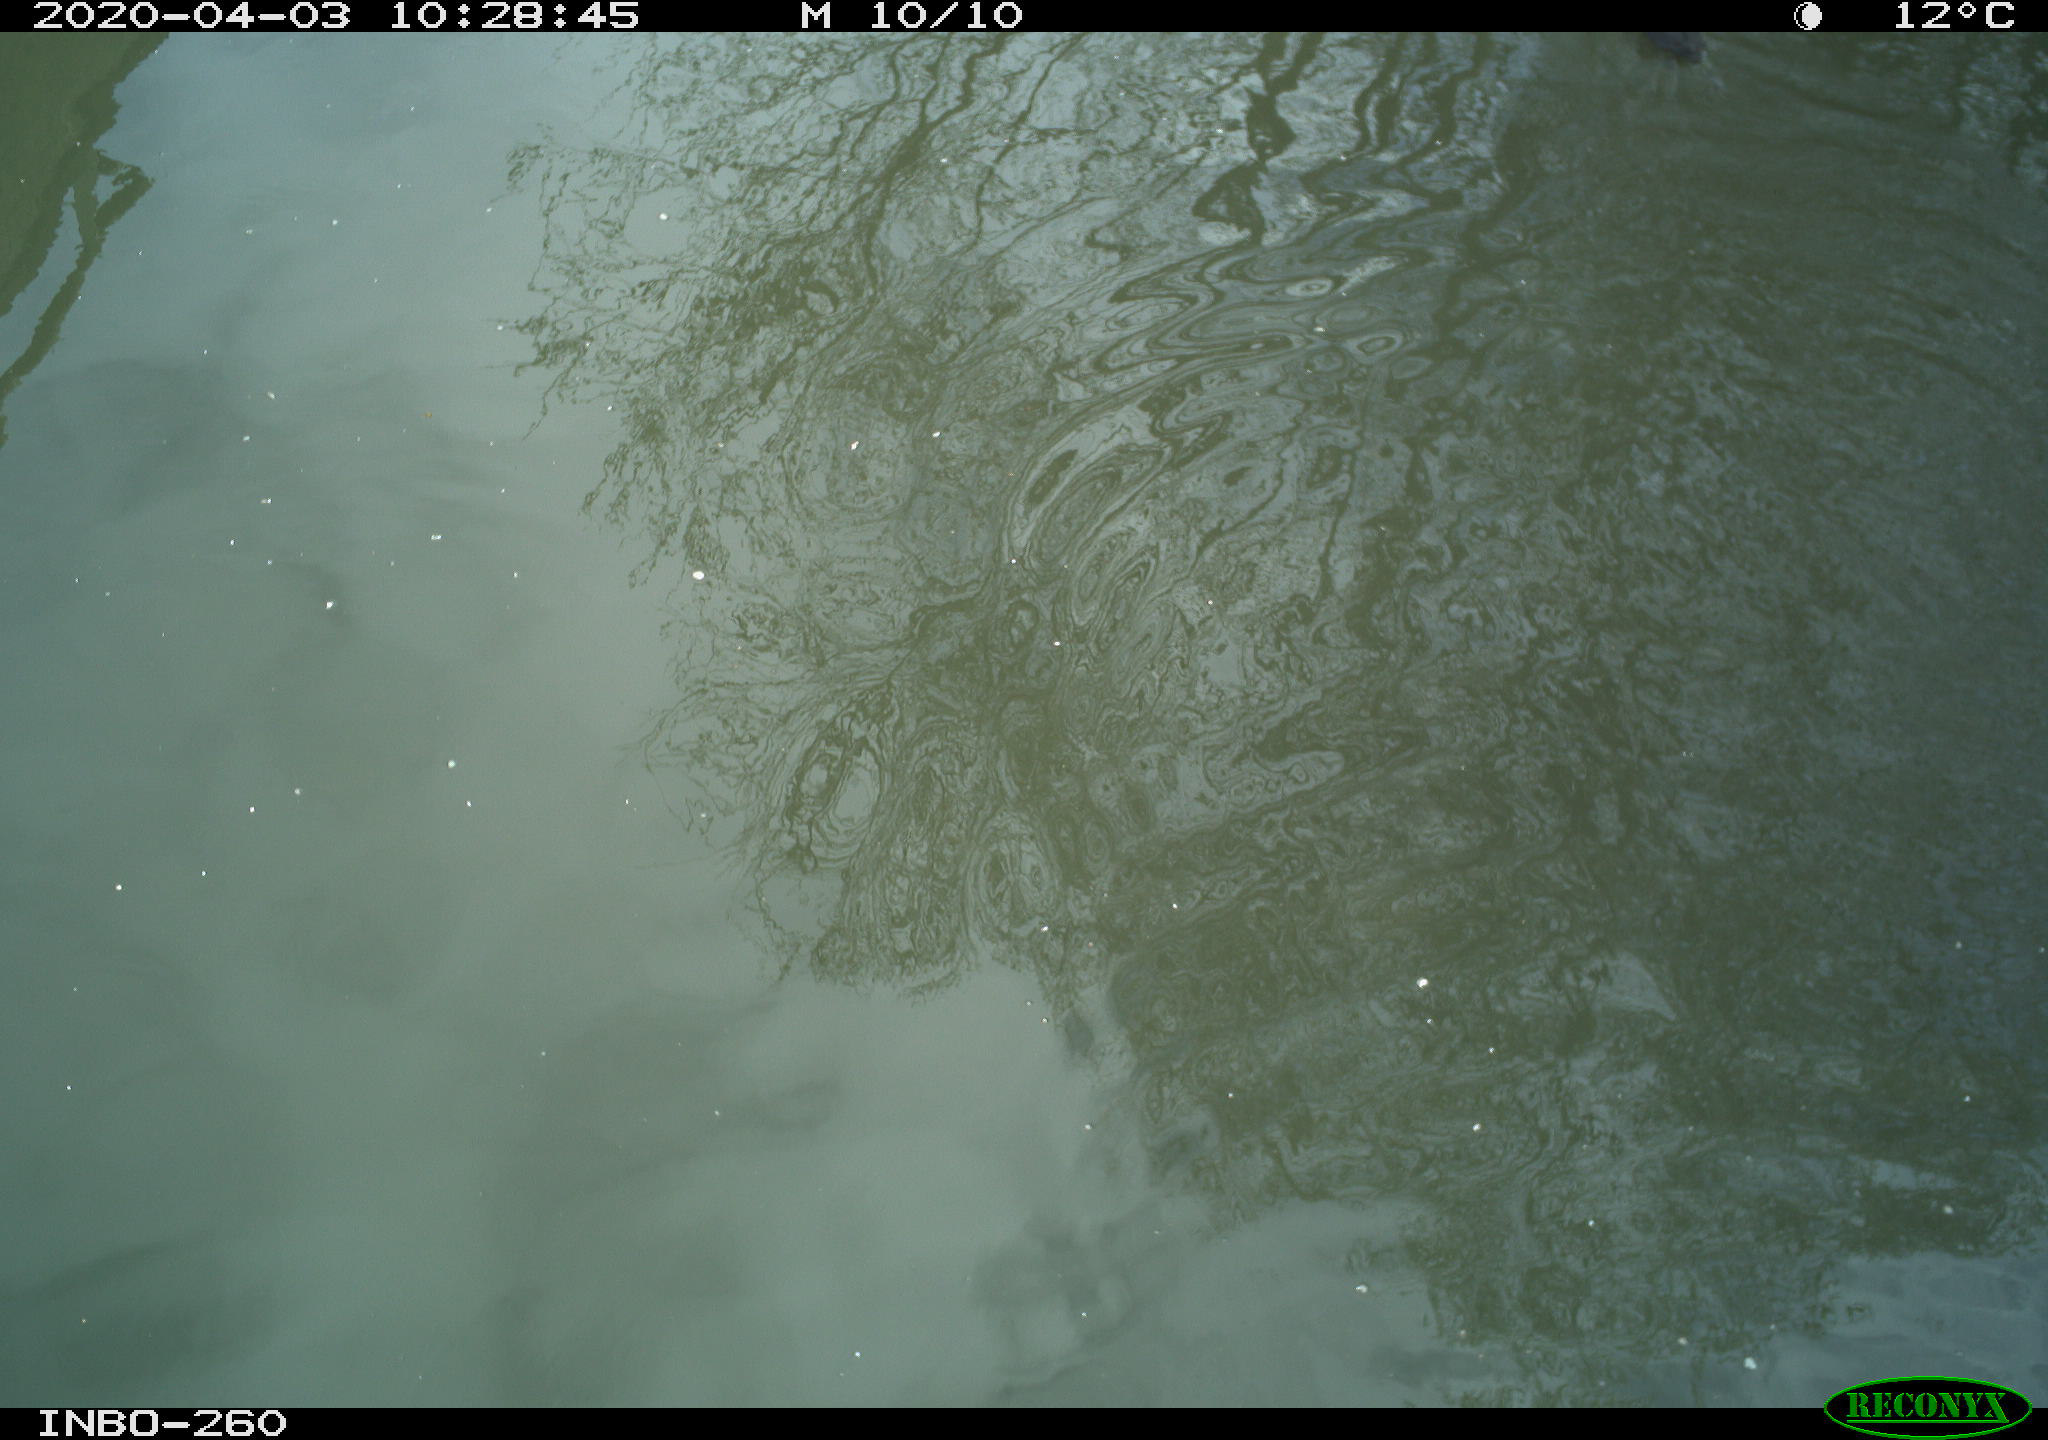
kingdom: Animalia
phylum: Chordata
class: Aves
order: Gruiformes
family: Rallidae
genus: Fulica
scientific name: Fulica atra
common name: Eurasian coot
